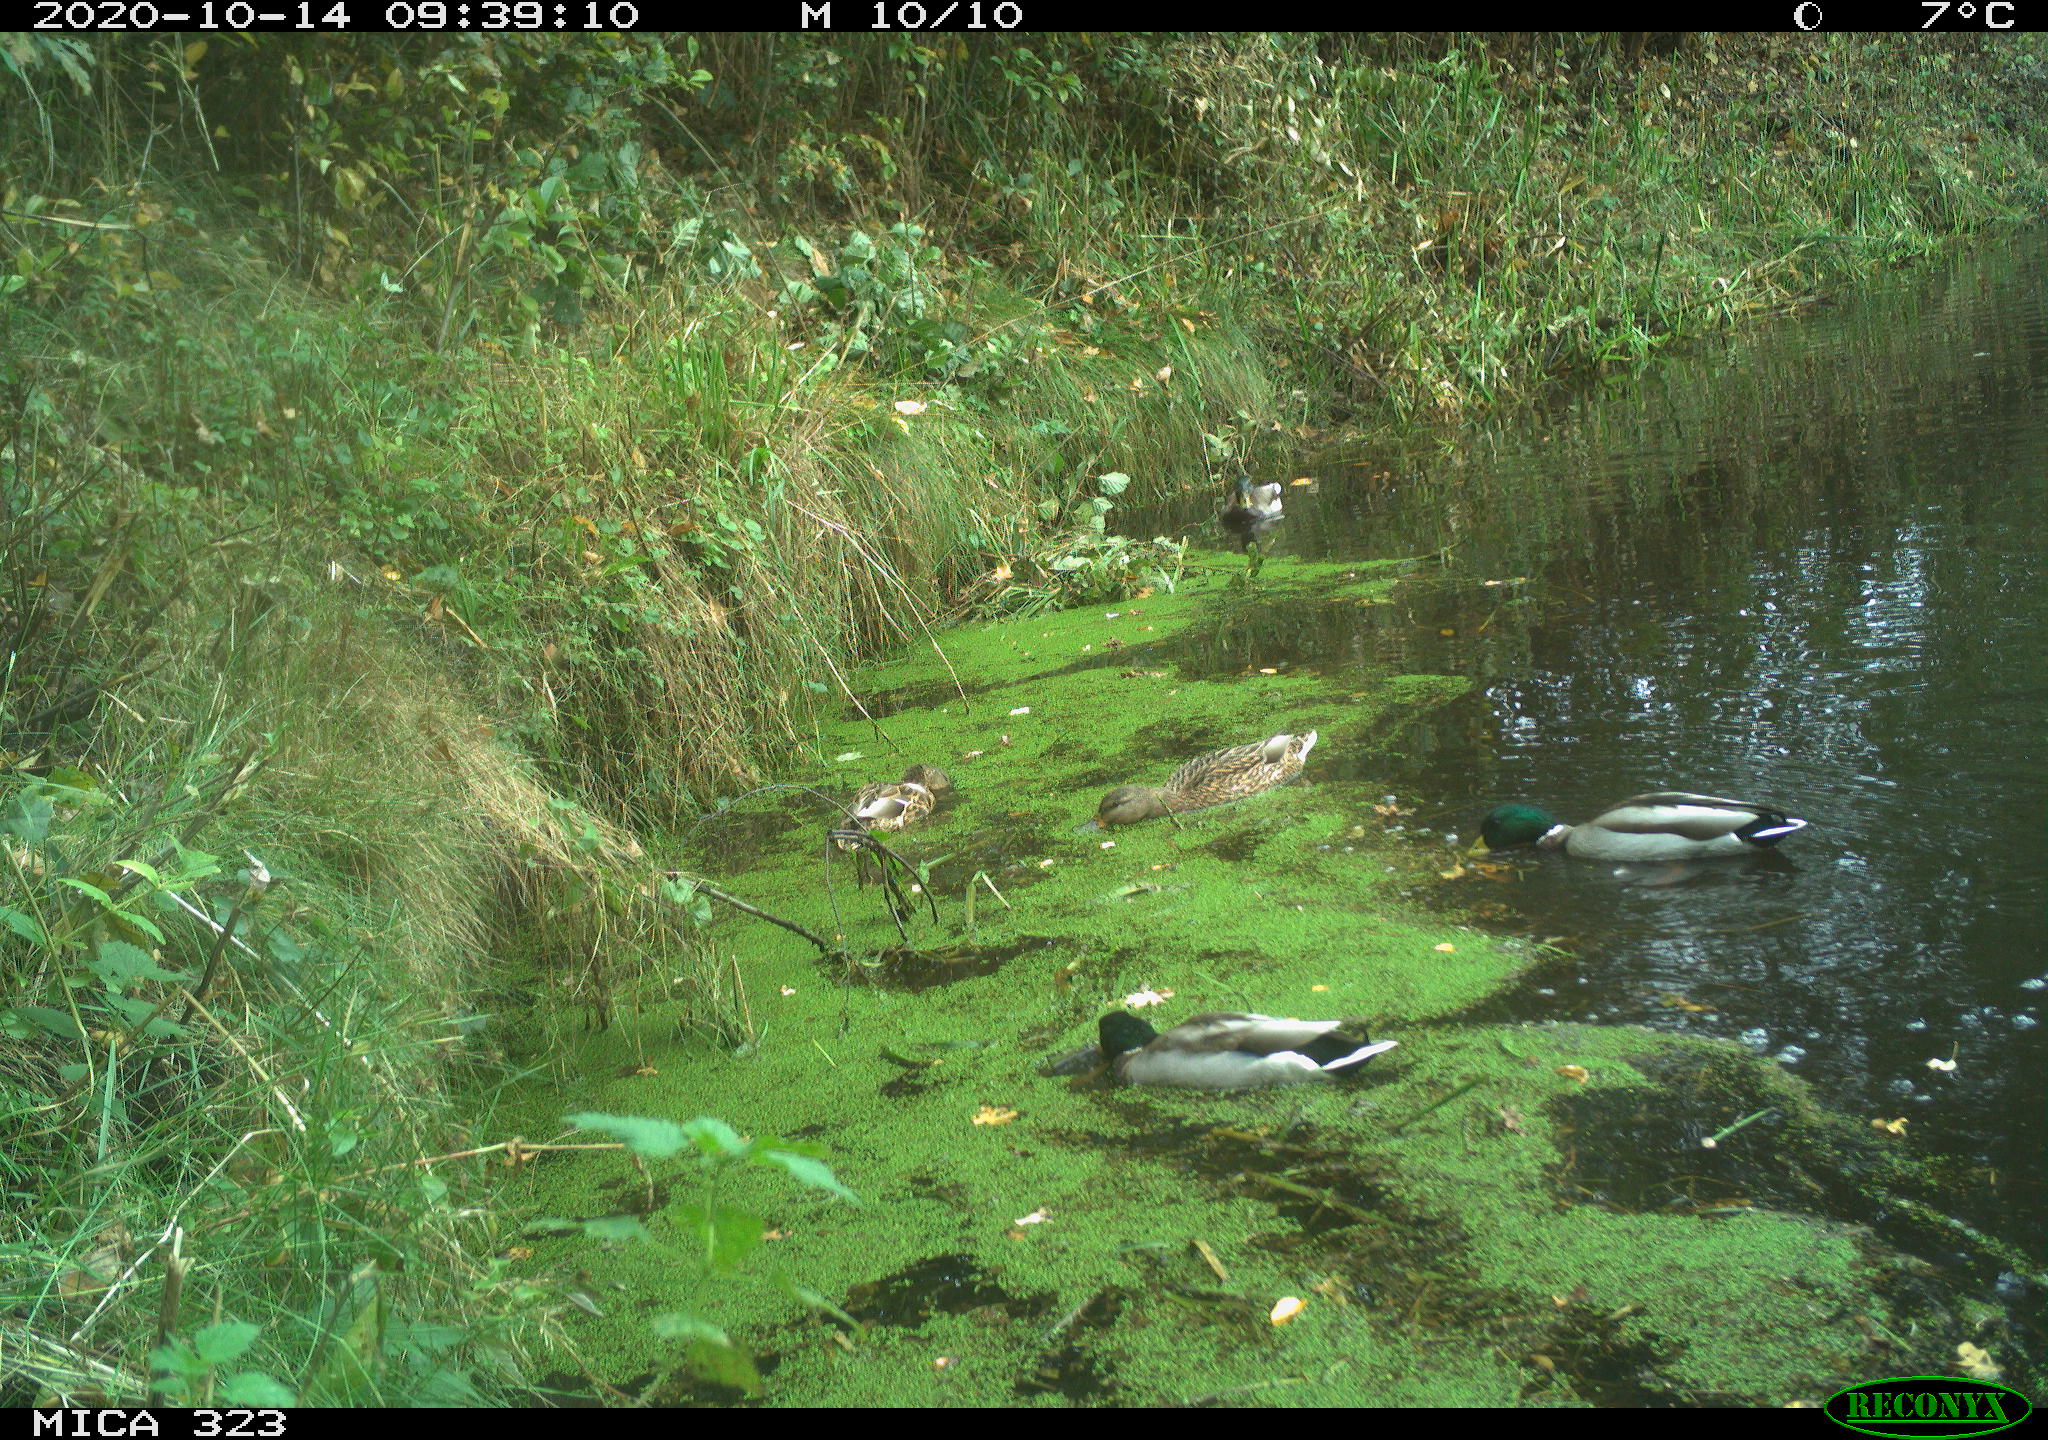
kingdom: Animalia
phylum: Chordata
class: Aves
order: Anseriformes
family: Anatidae
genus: Anas
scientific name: Anas platyrhynchos
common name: Mallard
